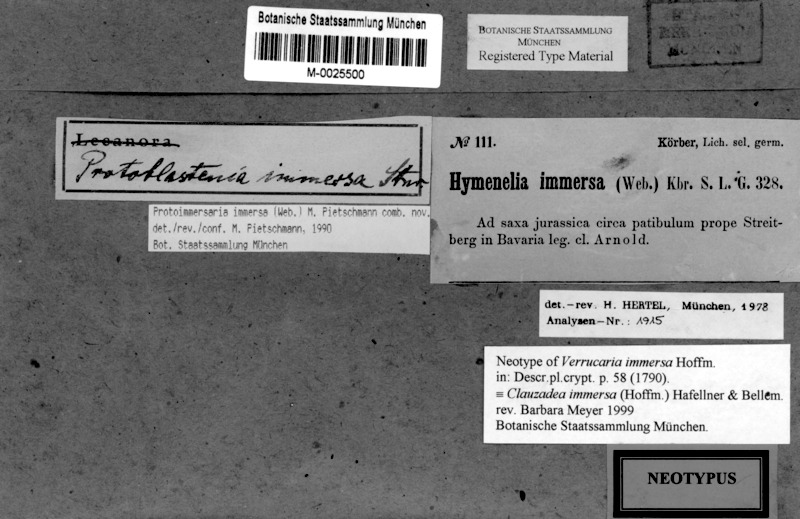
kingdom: Fungi
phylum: Ascomycota
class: Lecanoromycetes
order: Lecideales
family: Lecideaceae
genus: Clauzadea
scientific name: Clauzadea immersa
